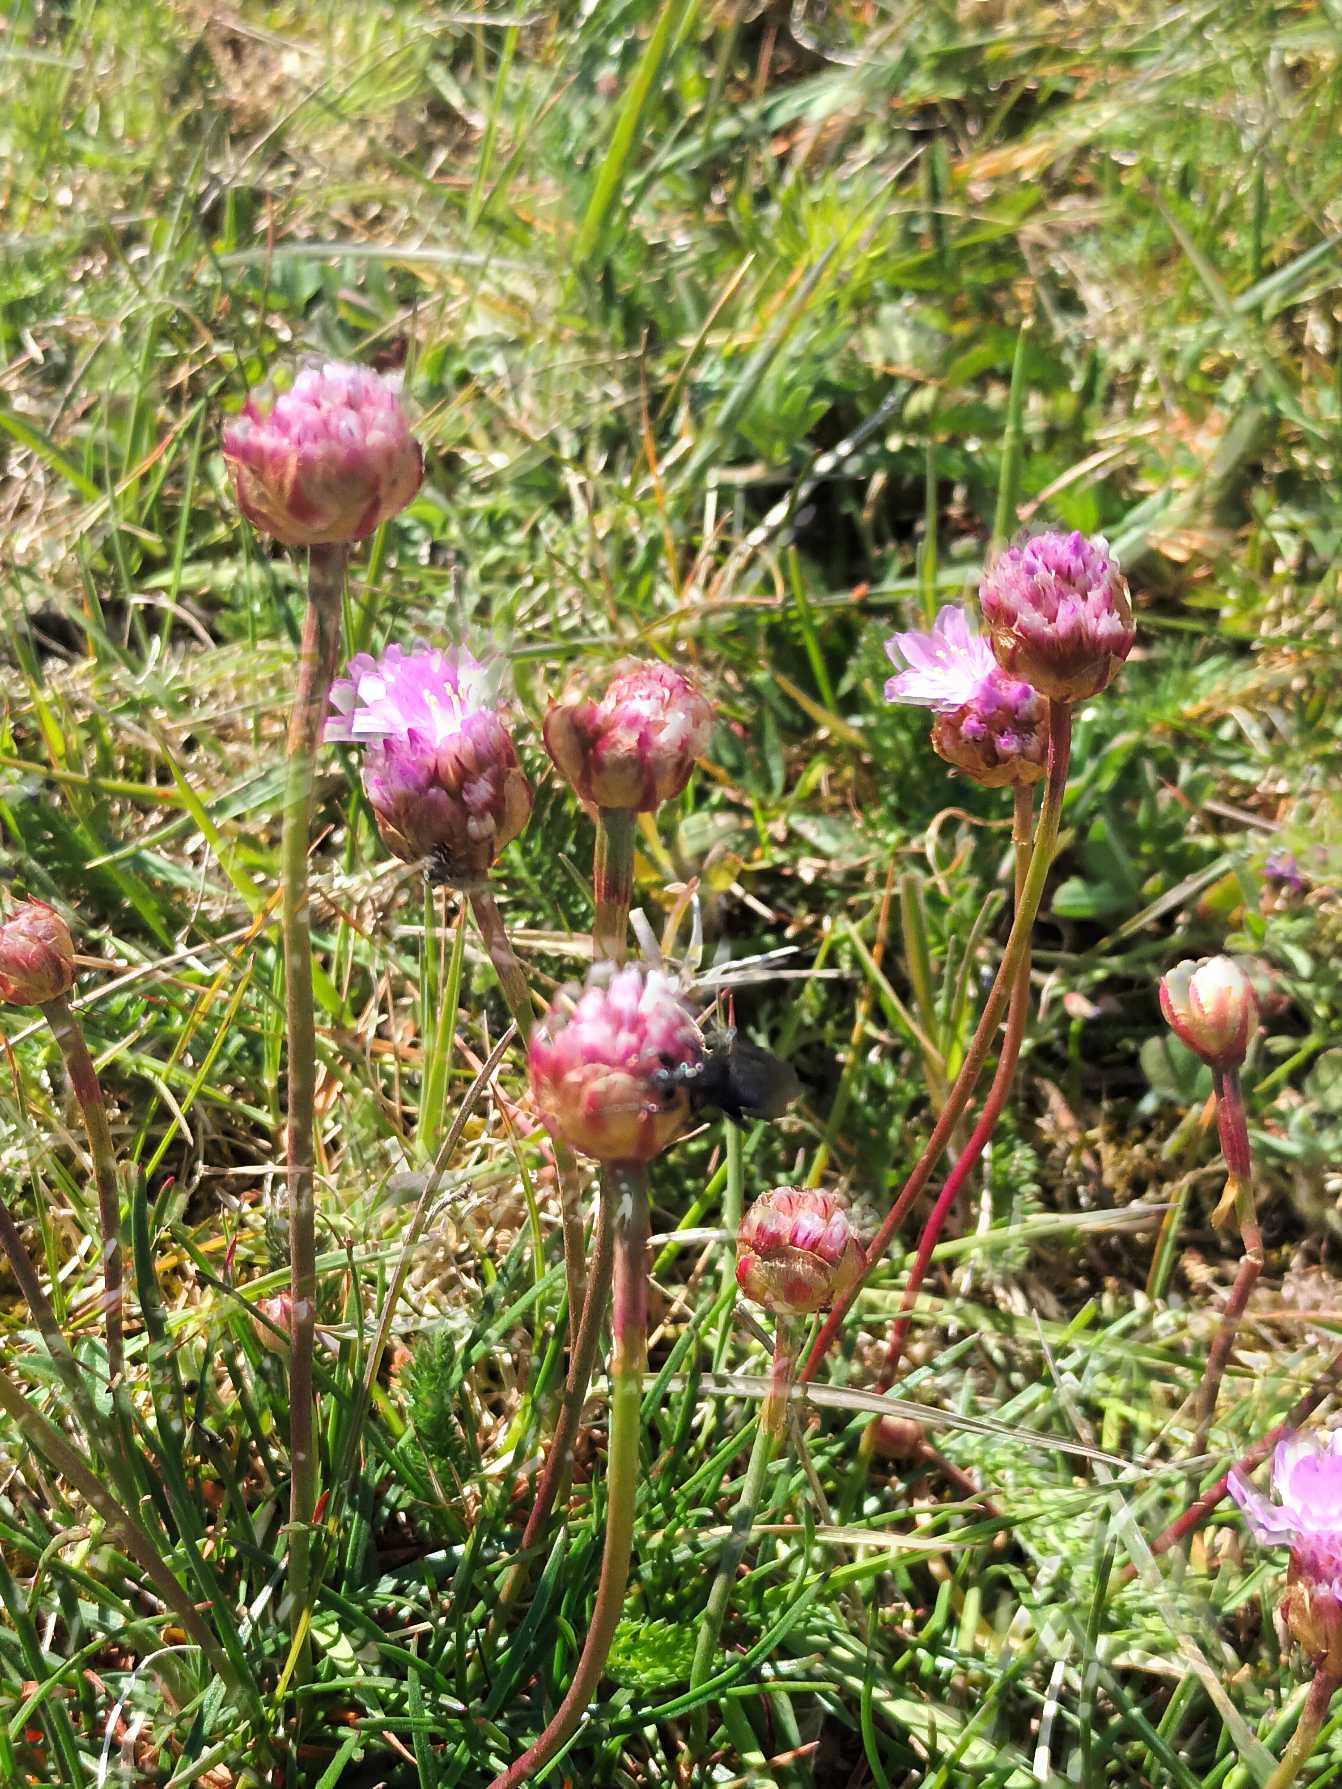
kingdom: Plantae
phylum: Tracheophyta
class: Magnoliopsida
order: Caryophyllales
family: Plumbaginaceae
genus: Armeria
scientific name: Armeria maritima
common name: Engelskgræs
